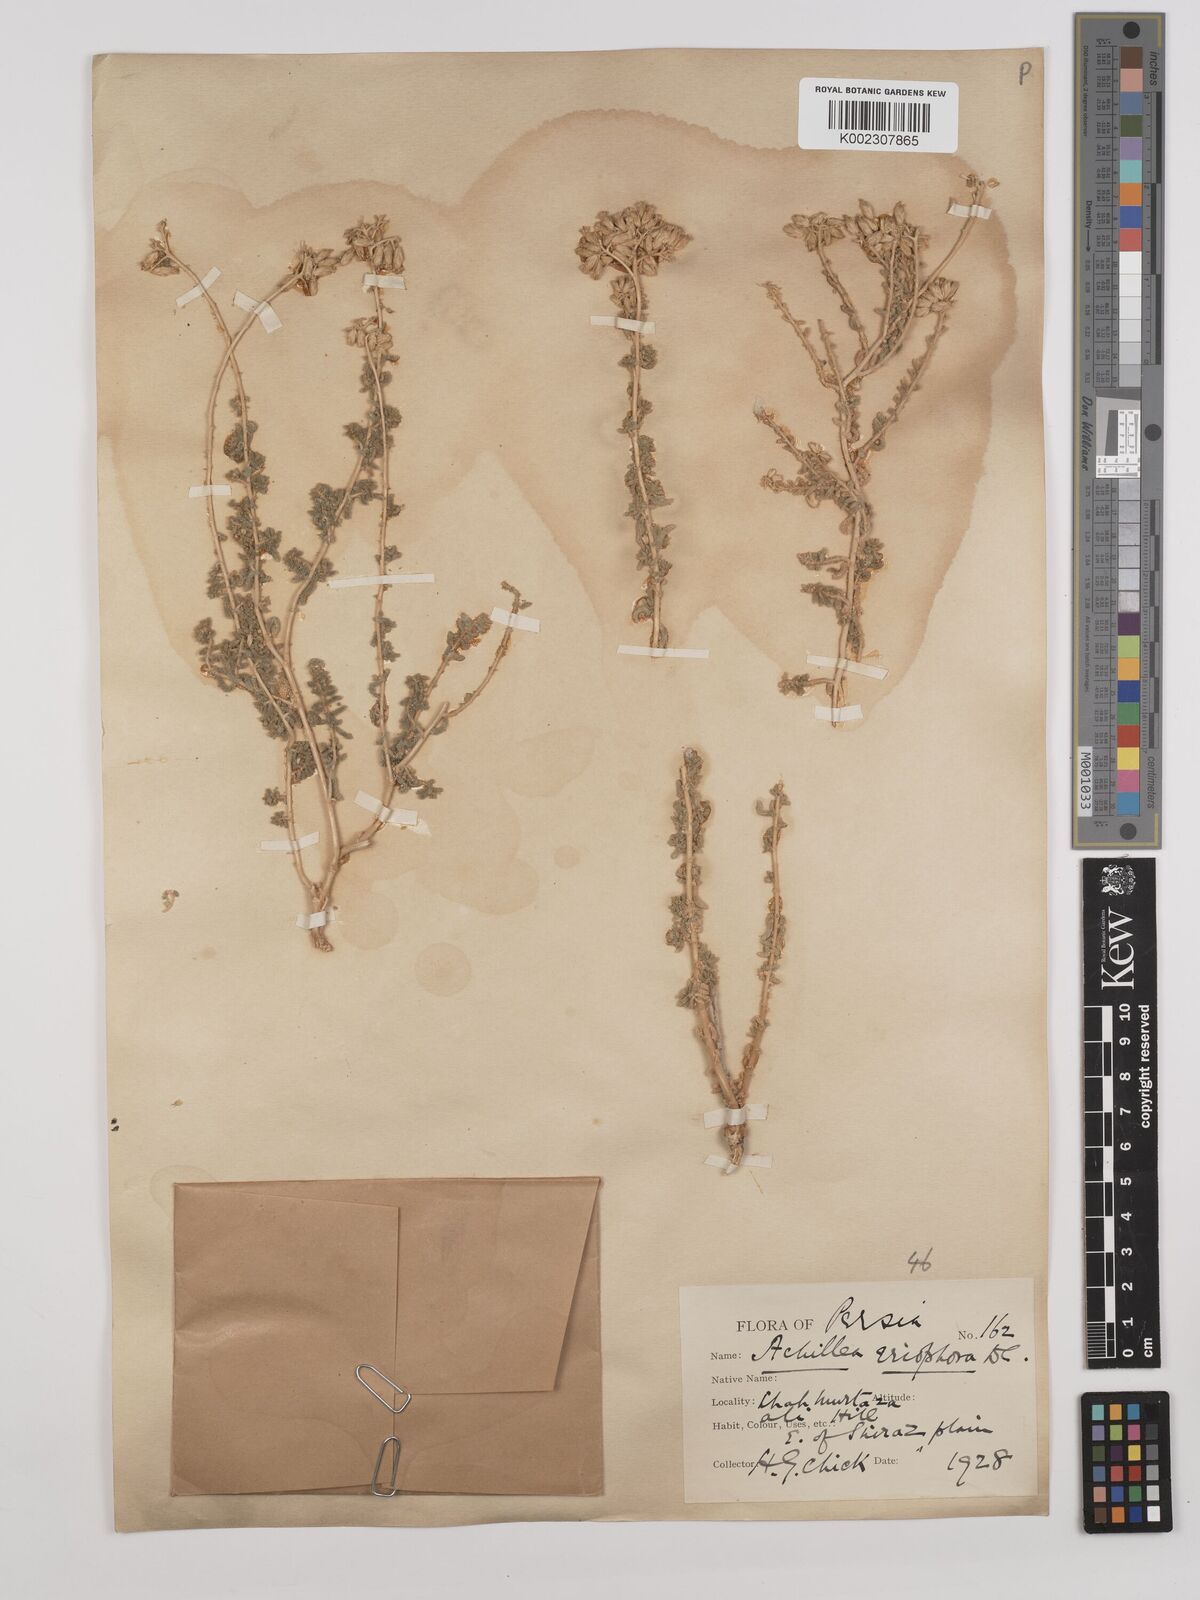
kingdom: Plantae
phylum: Tracheophyta
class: Magnoliopsida
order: Asterales
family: Asteraceae
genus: Achillea
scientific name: Achillea wilhelmsii
